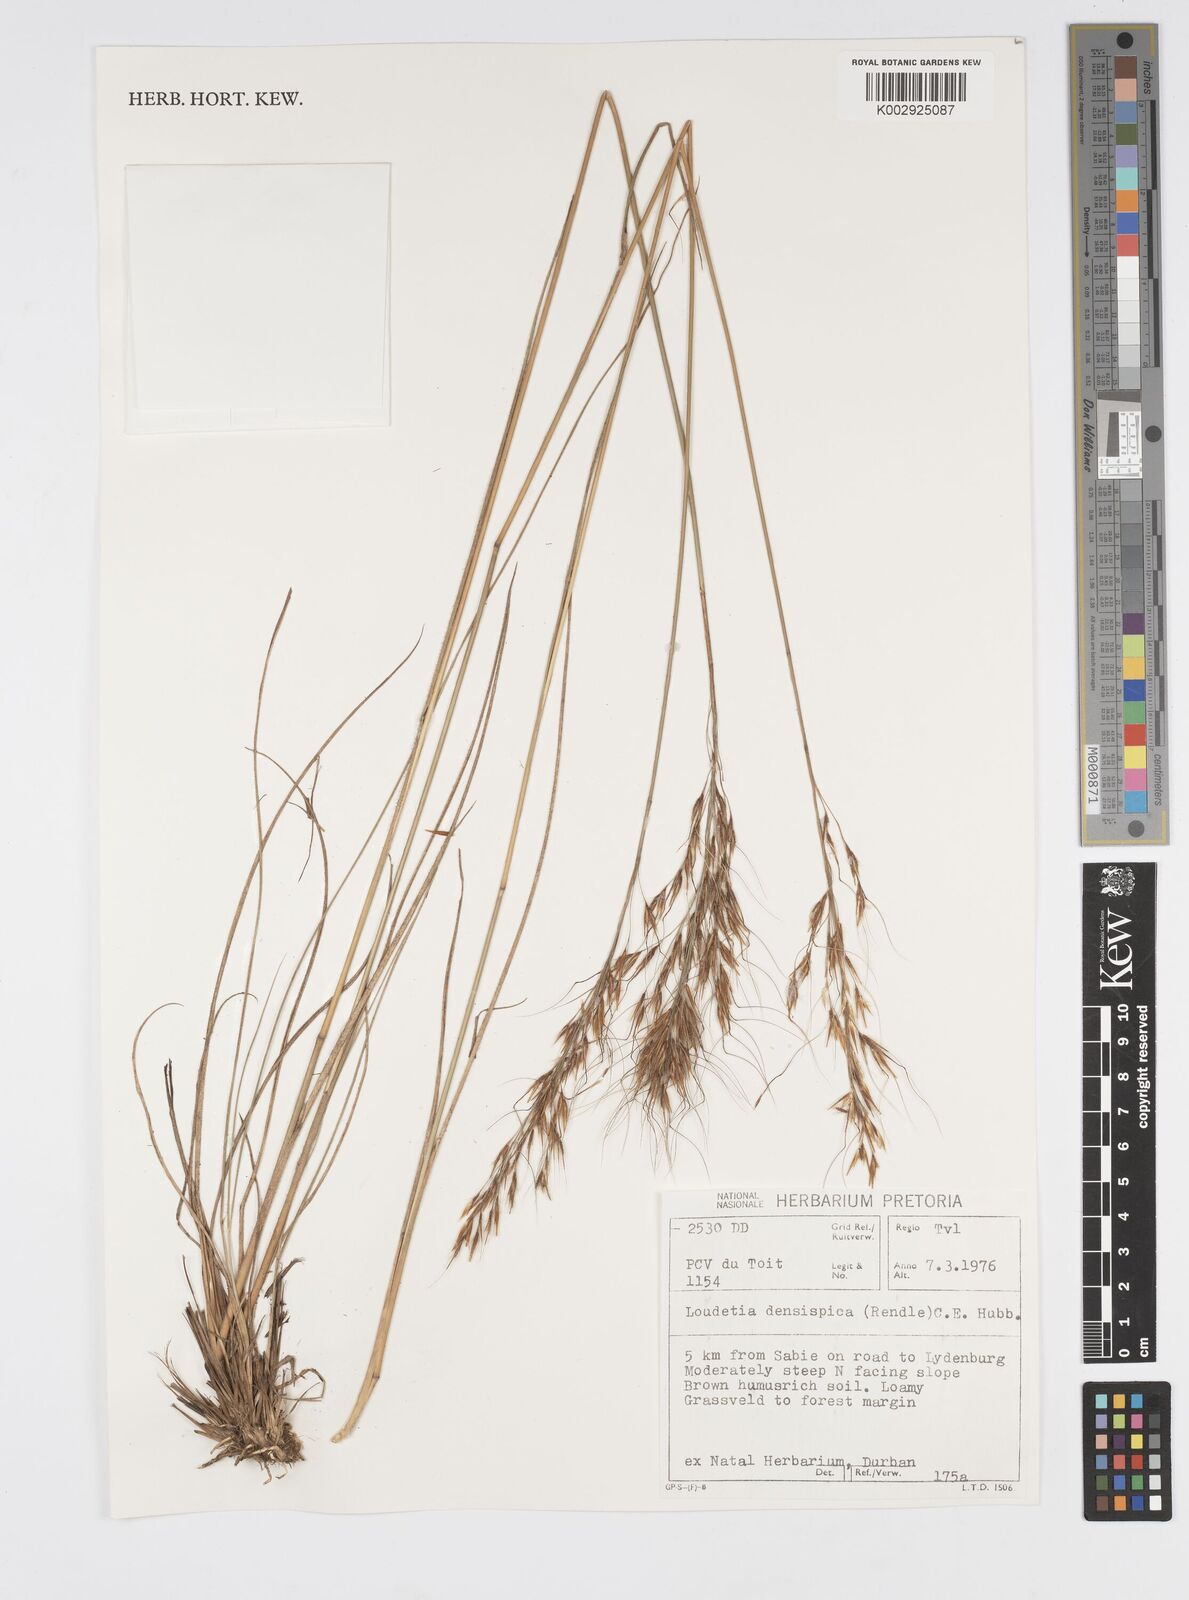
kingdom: Plantae
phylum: Tracheophyta
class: Liliopsida
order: Poales
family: Poaceae
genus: Loudetia
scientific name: Loudetia
